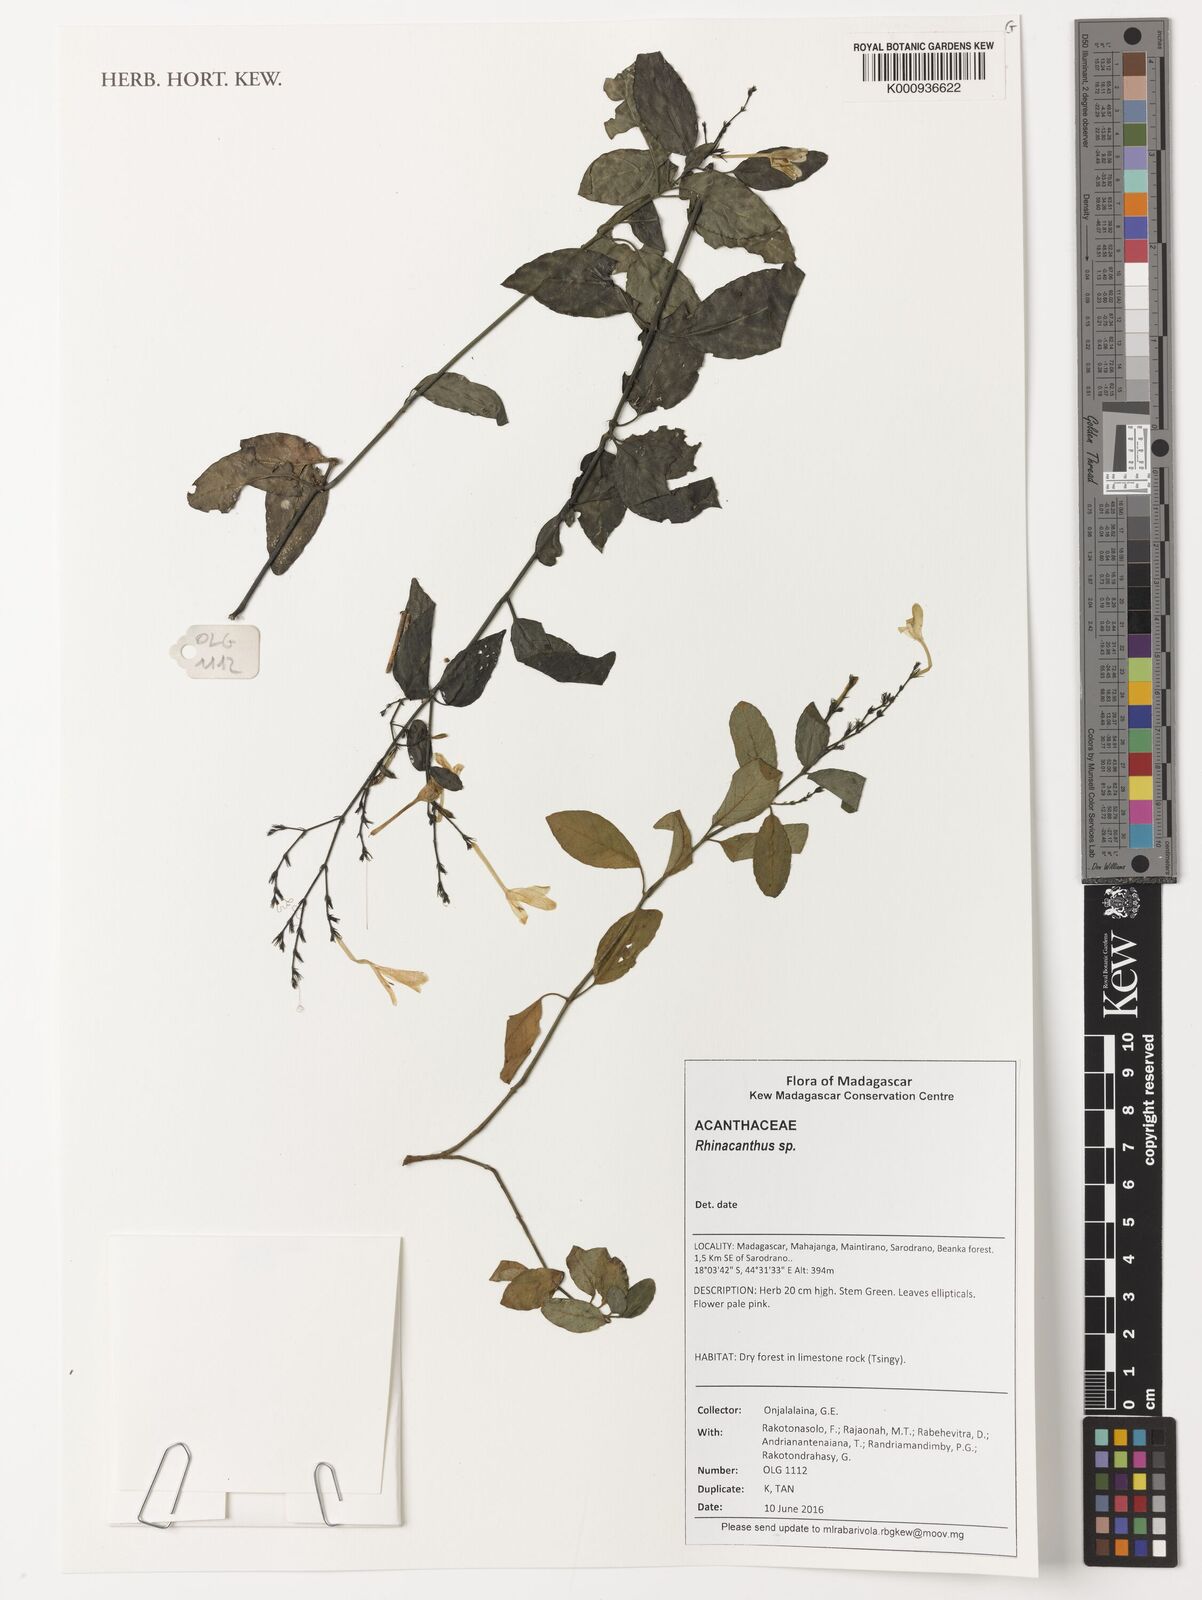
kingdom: Plantae
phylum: Tracheophyta
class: Magnoliopsida
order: Lamiales
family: Acanthaceae
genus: Rhinacanthus
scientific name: Rhinacanthus
